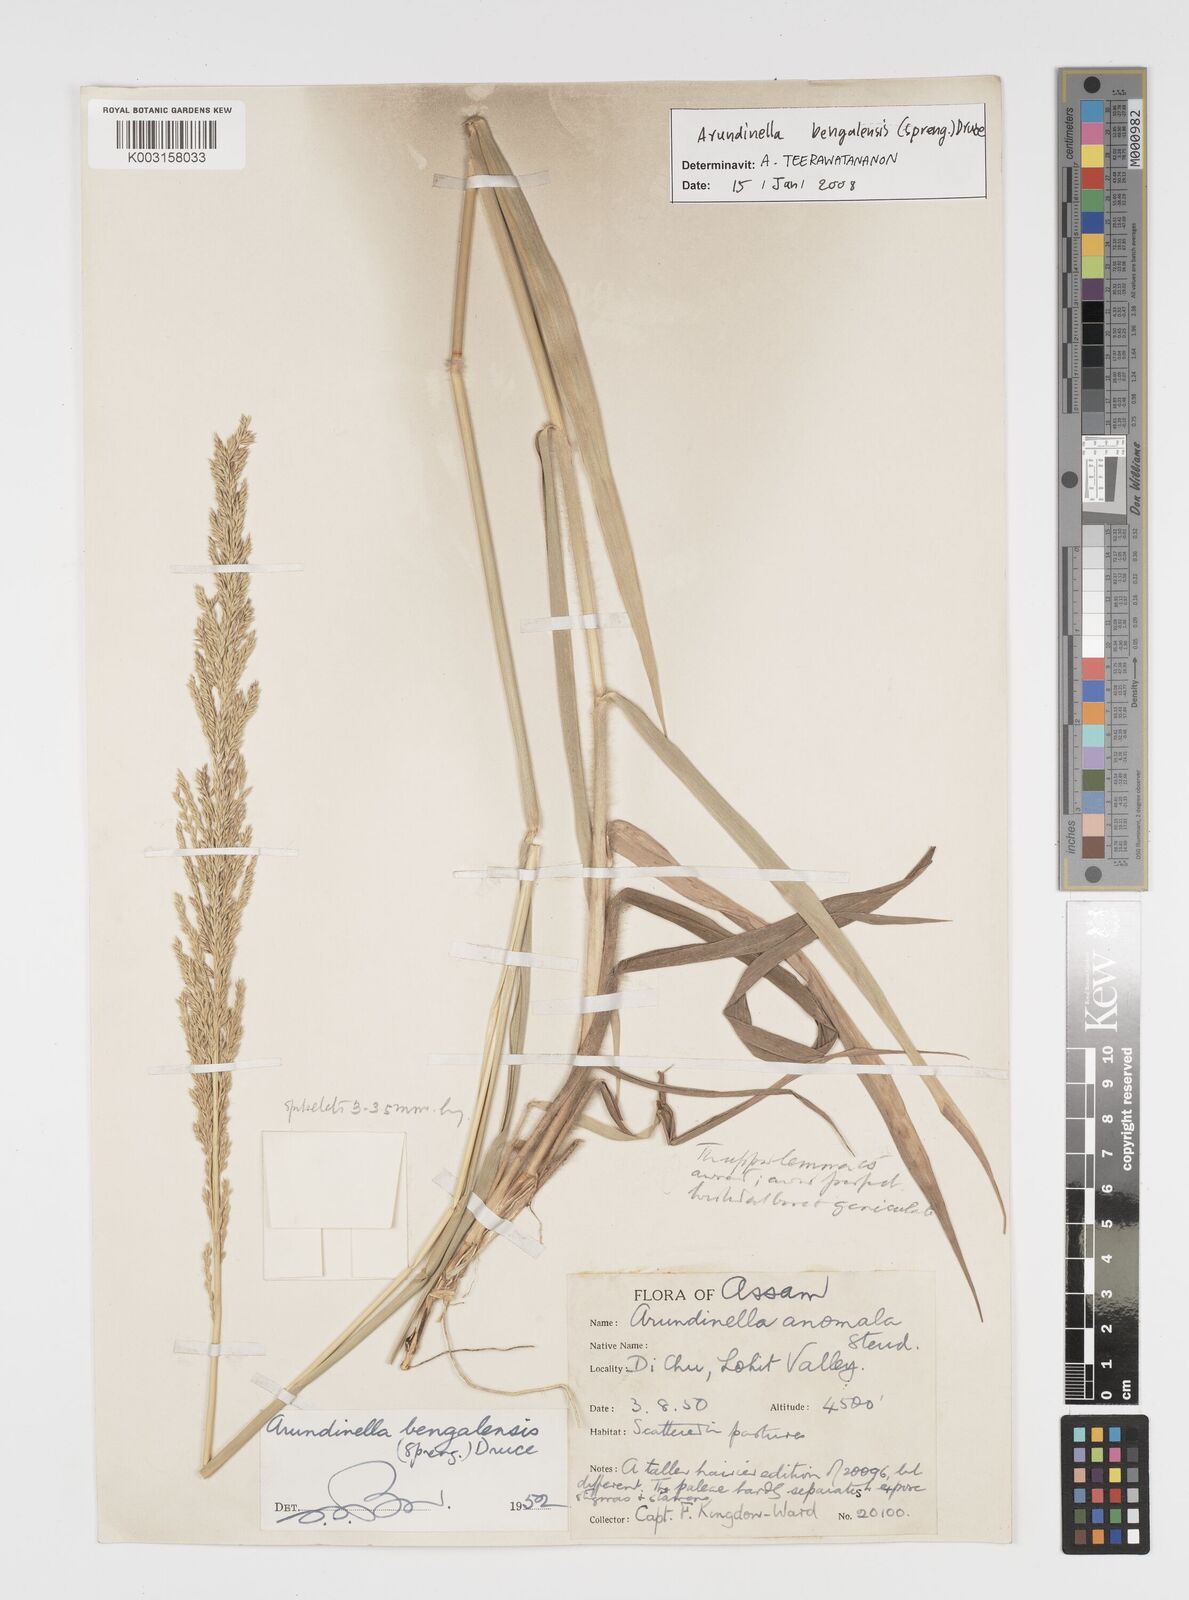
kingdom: Plantae
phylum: Tracheophyta
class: Liliopsida
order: Poales
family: Poaceae
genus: Arundinella
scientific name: Arundinella bengalensis
